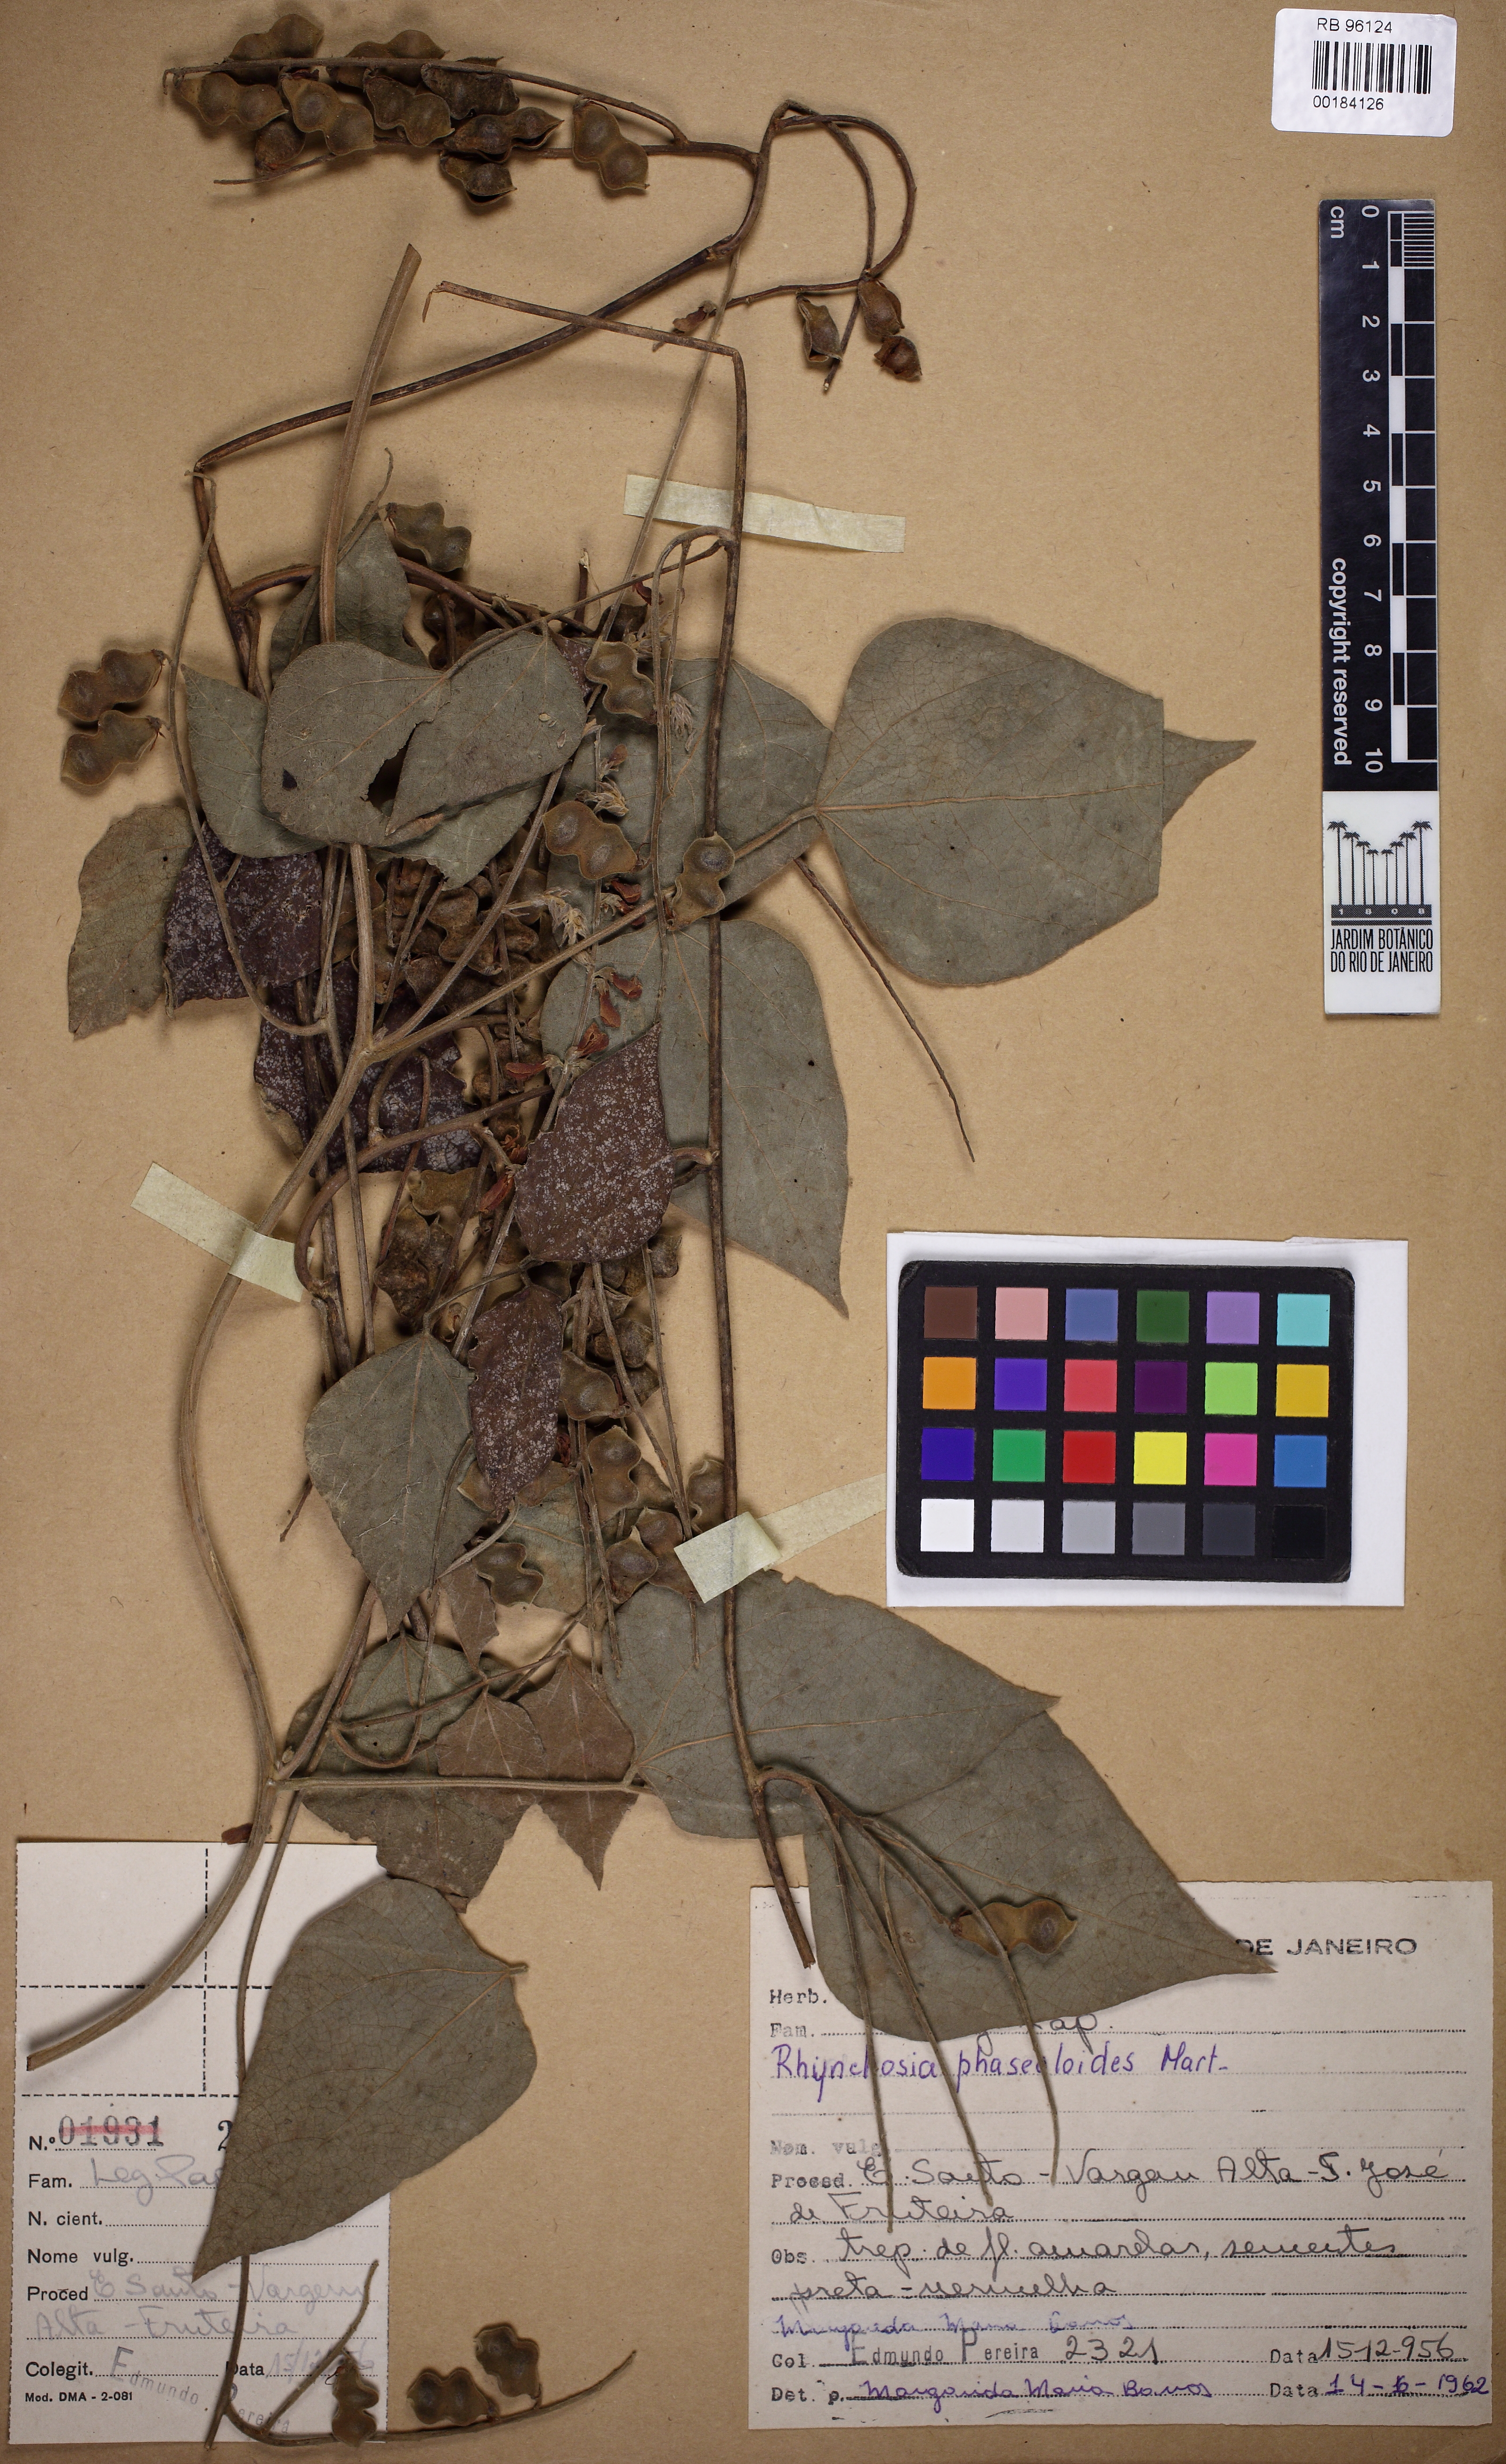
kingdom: Plantae
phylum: Tracheophyta
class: Magnoliopsida
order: Fabales
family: Fabaceae
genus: Rhynchosia
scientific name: Rhynchosia phaseoloides
